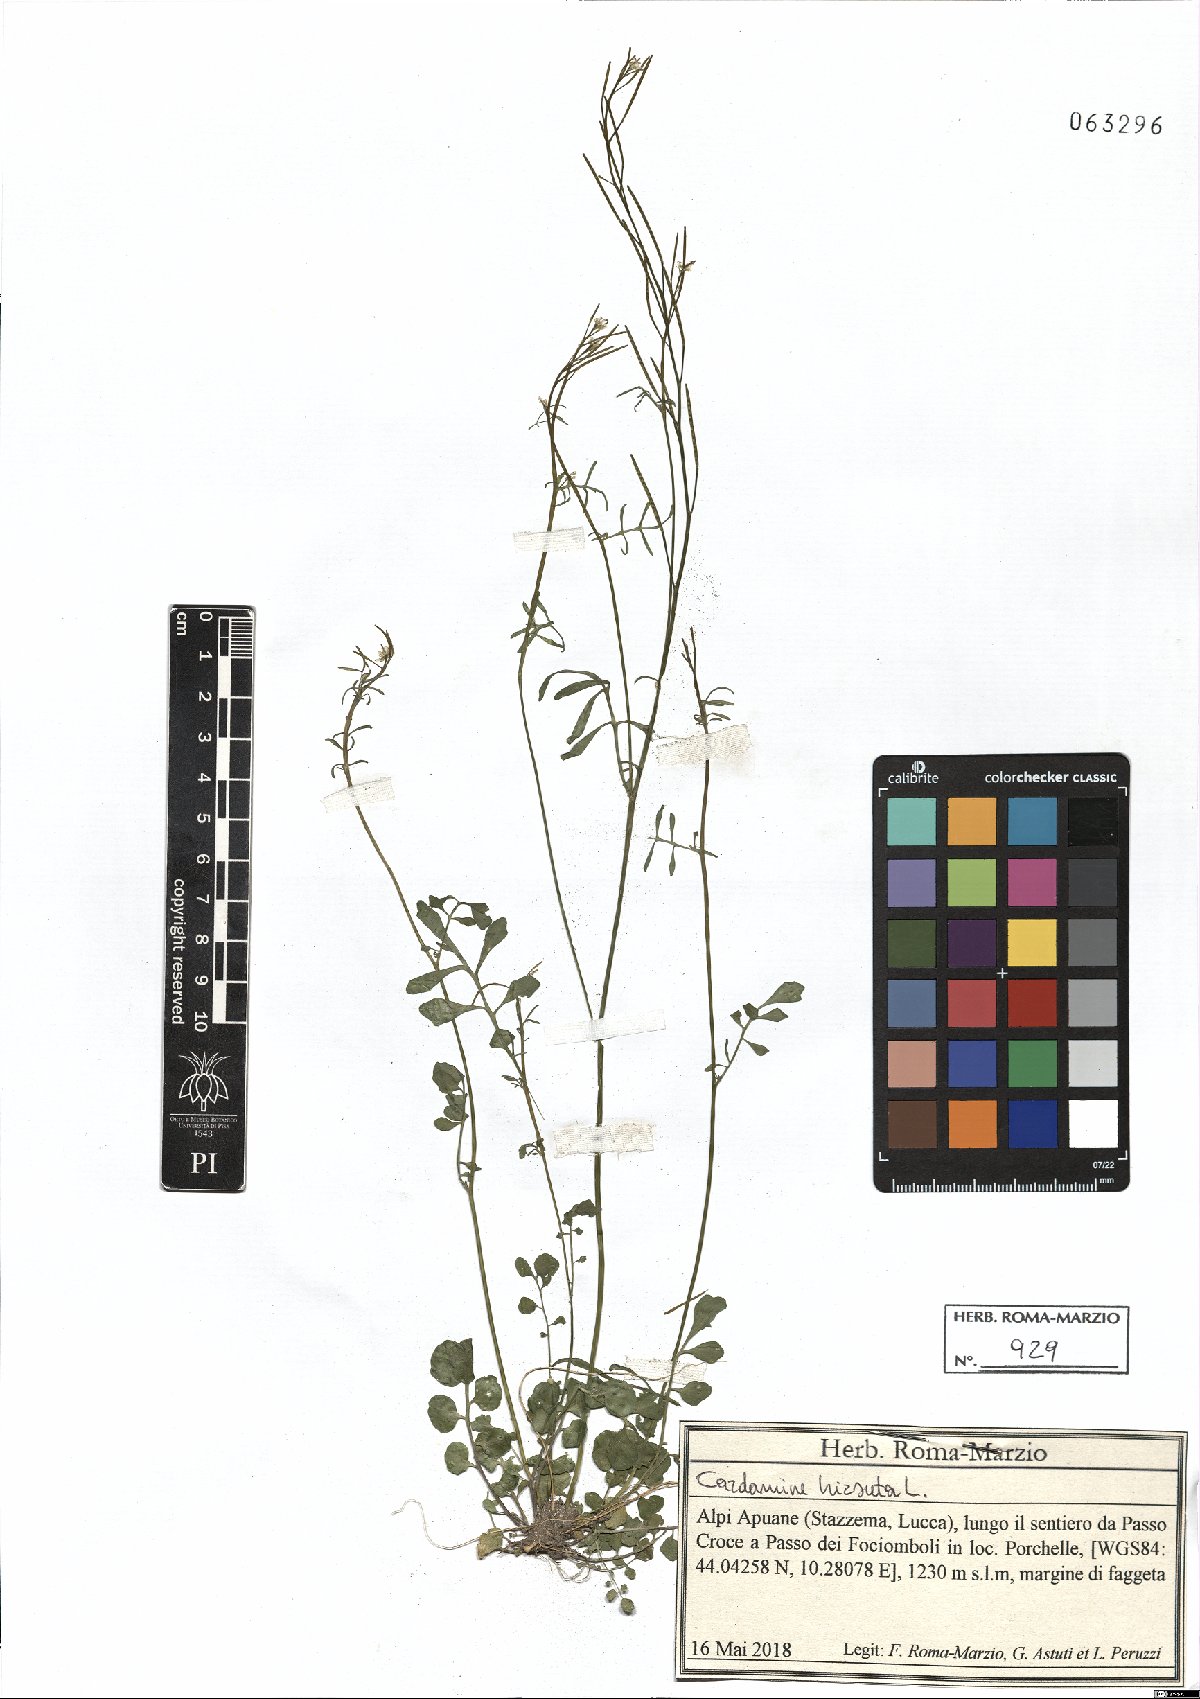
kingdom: Plantae
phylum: Tracheophyta
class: Magnoliopsida
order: Brassicales
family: Brassicaceae
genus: Cardamine
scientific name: Cardamine hirsuta
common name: Hairy bittercress
